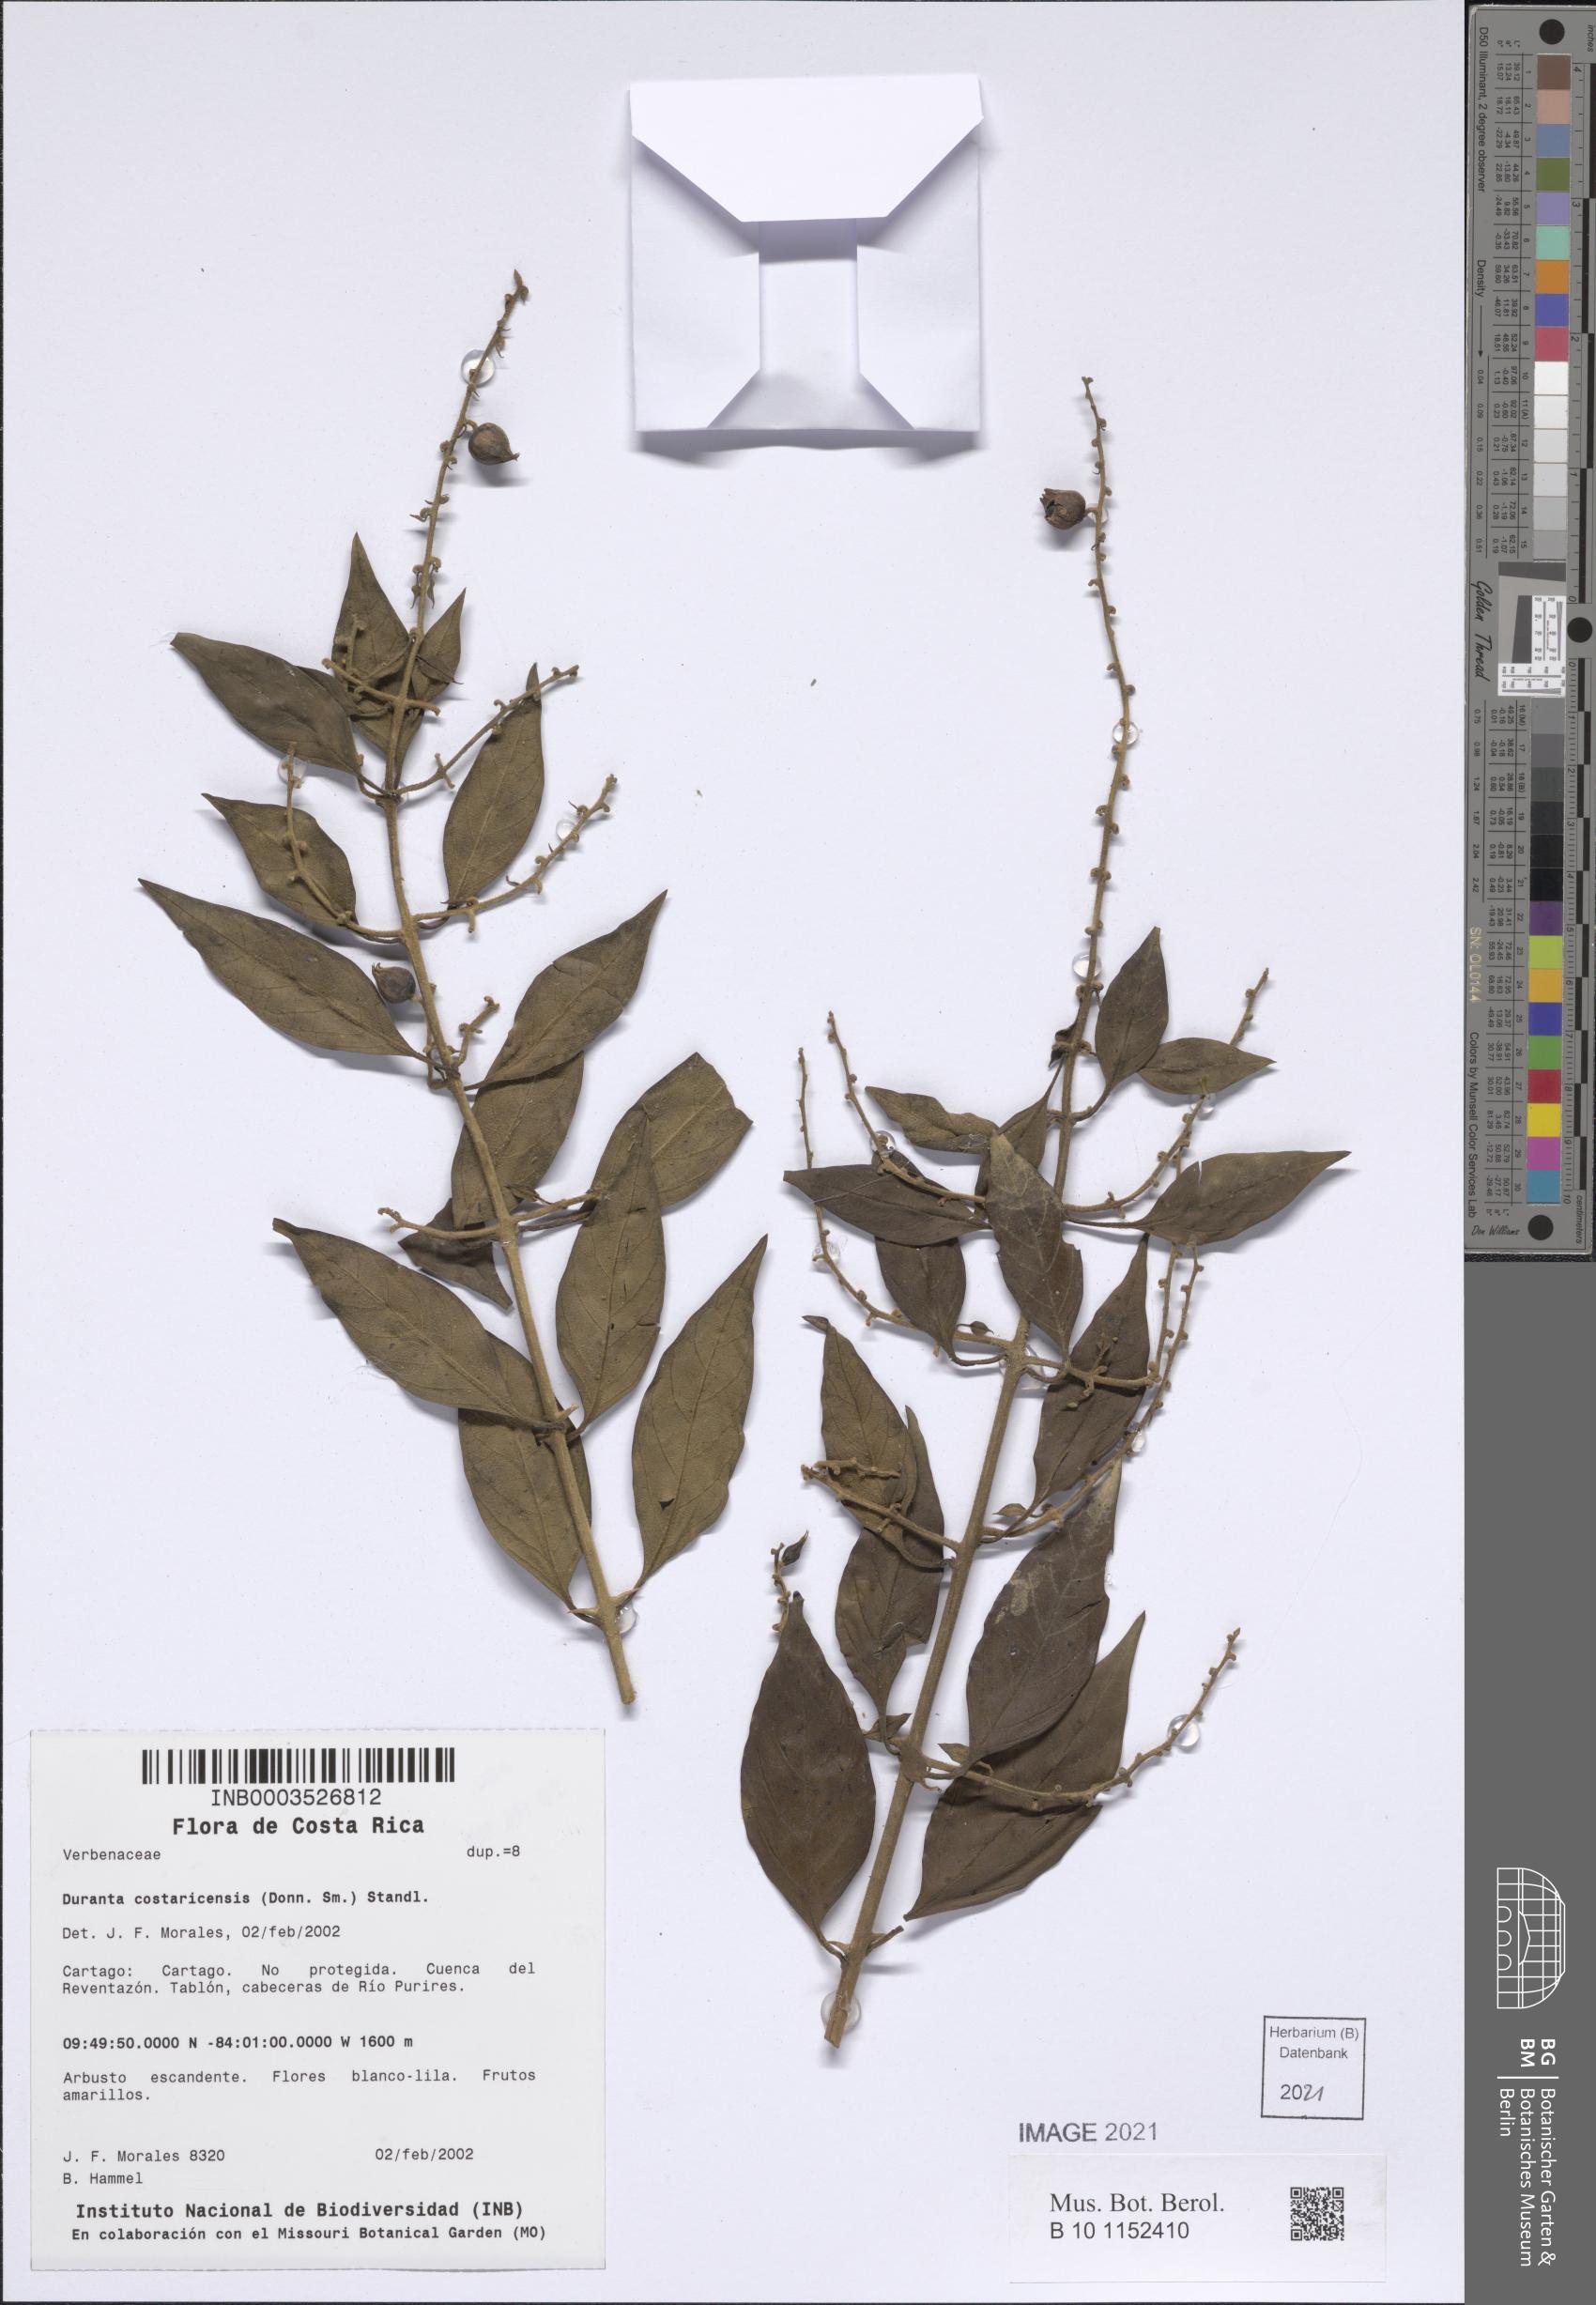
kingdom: Plantae
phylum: Tracheophyta
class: Magnoliopsida
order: Lamiales
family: Verbenaceae
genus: Duranta
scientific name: Duranta costaricensis
